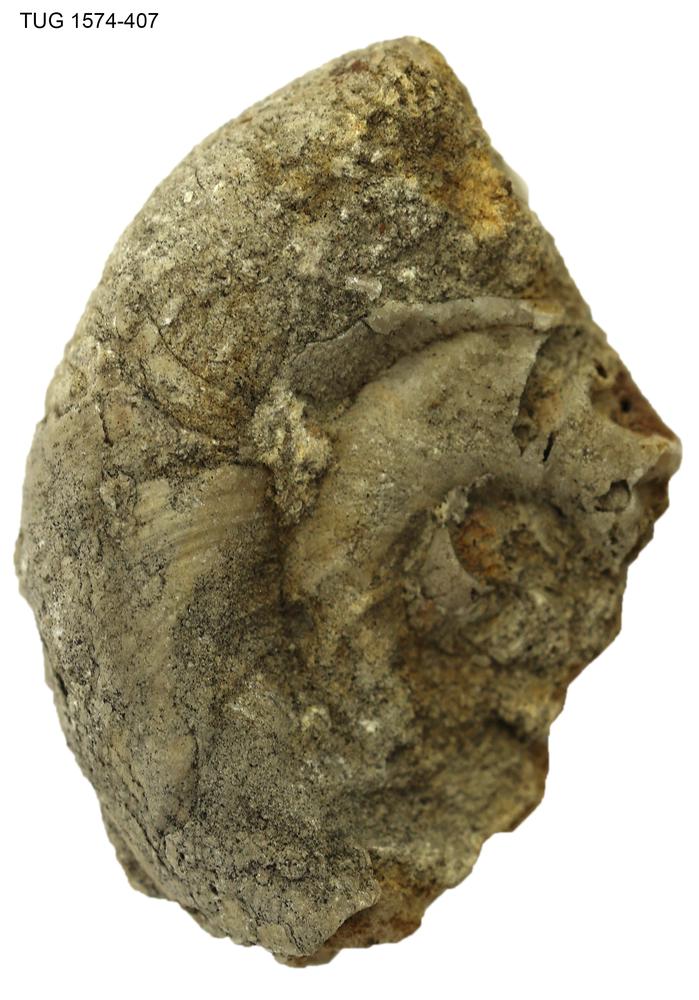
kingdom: Animalia
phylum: Mollusca
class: Cephalopoda
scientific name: Cephalopoda
